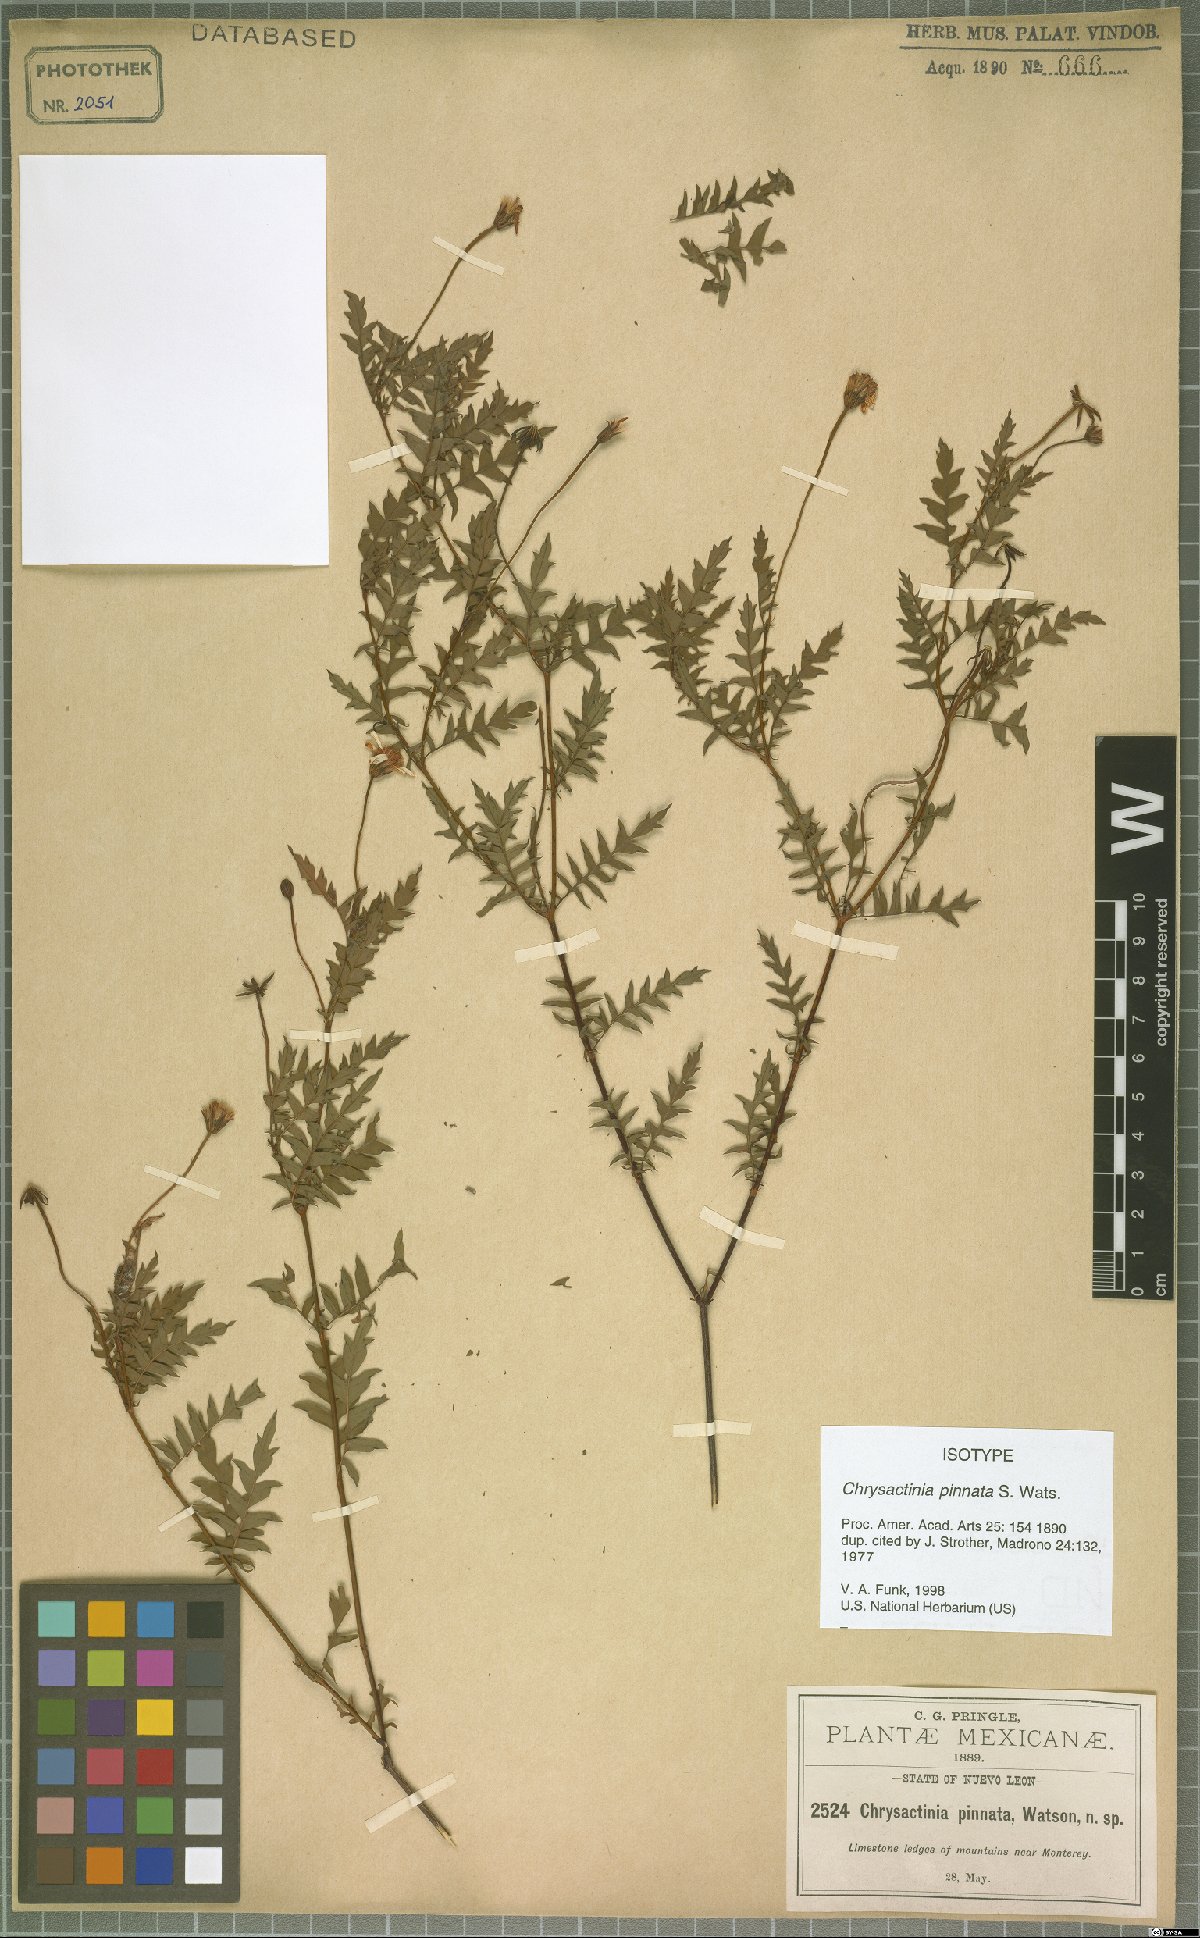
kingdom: Plantae
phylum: Tracheophyta
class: Magnoliopsida
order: Asterales
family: Asteraceae
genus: Chrysactinia
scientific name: Chrysactinia pinnata
